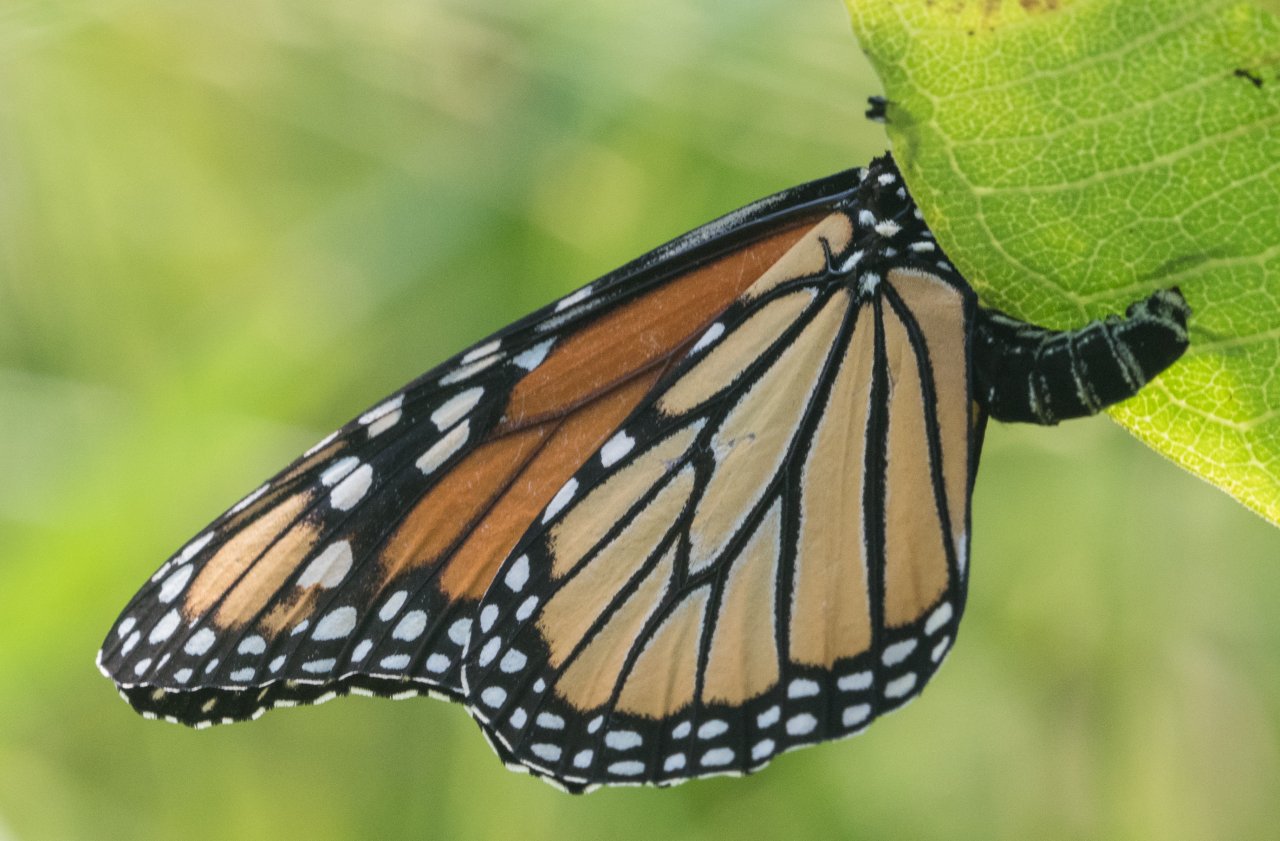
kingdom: Animalia
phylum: Arthropoda
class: Insecta
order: Lepidoptera
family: Nymphalidae
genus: Danaus
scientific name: Danaus plexippus
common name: Monarch
